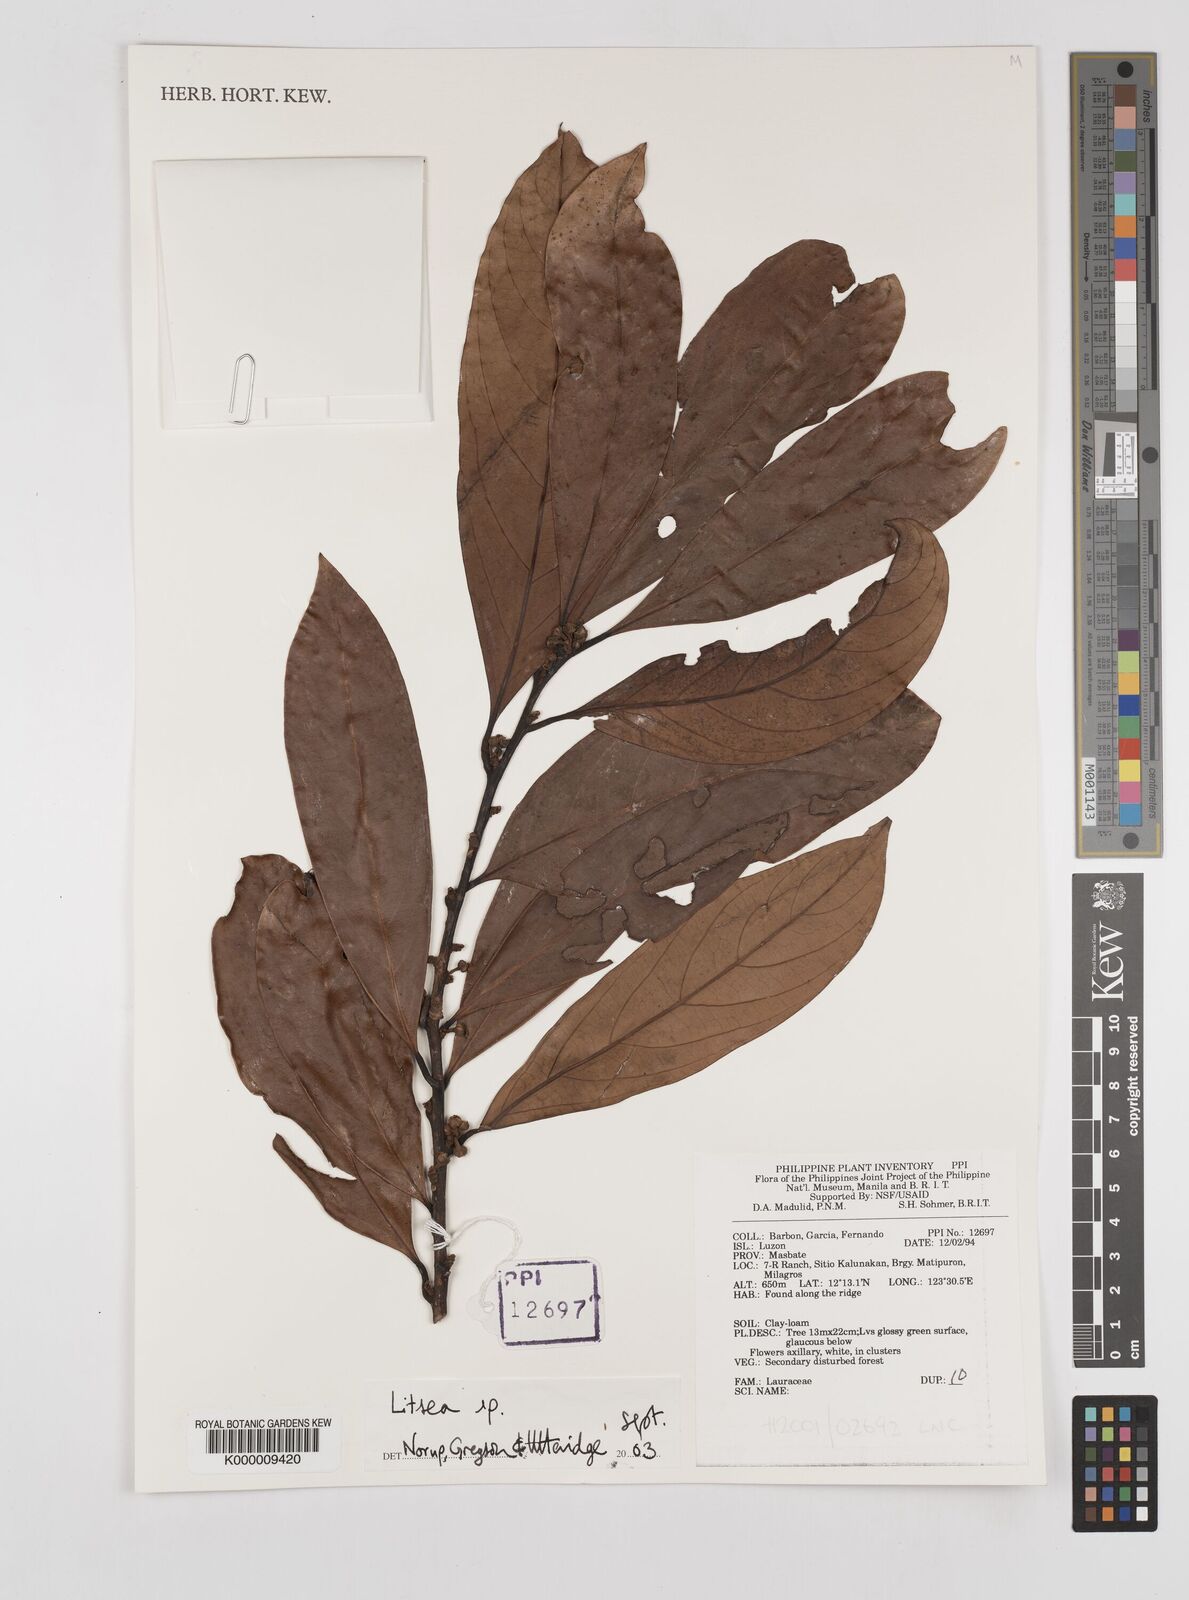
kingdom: Plantae
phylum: Tracheophyta
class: Magnoliopsida
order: Laurales
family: Lauraceae
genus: Litsea
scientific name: Litsea
